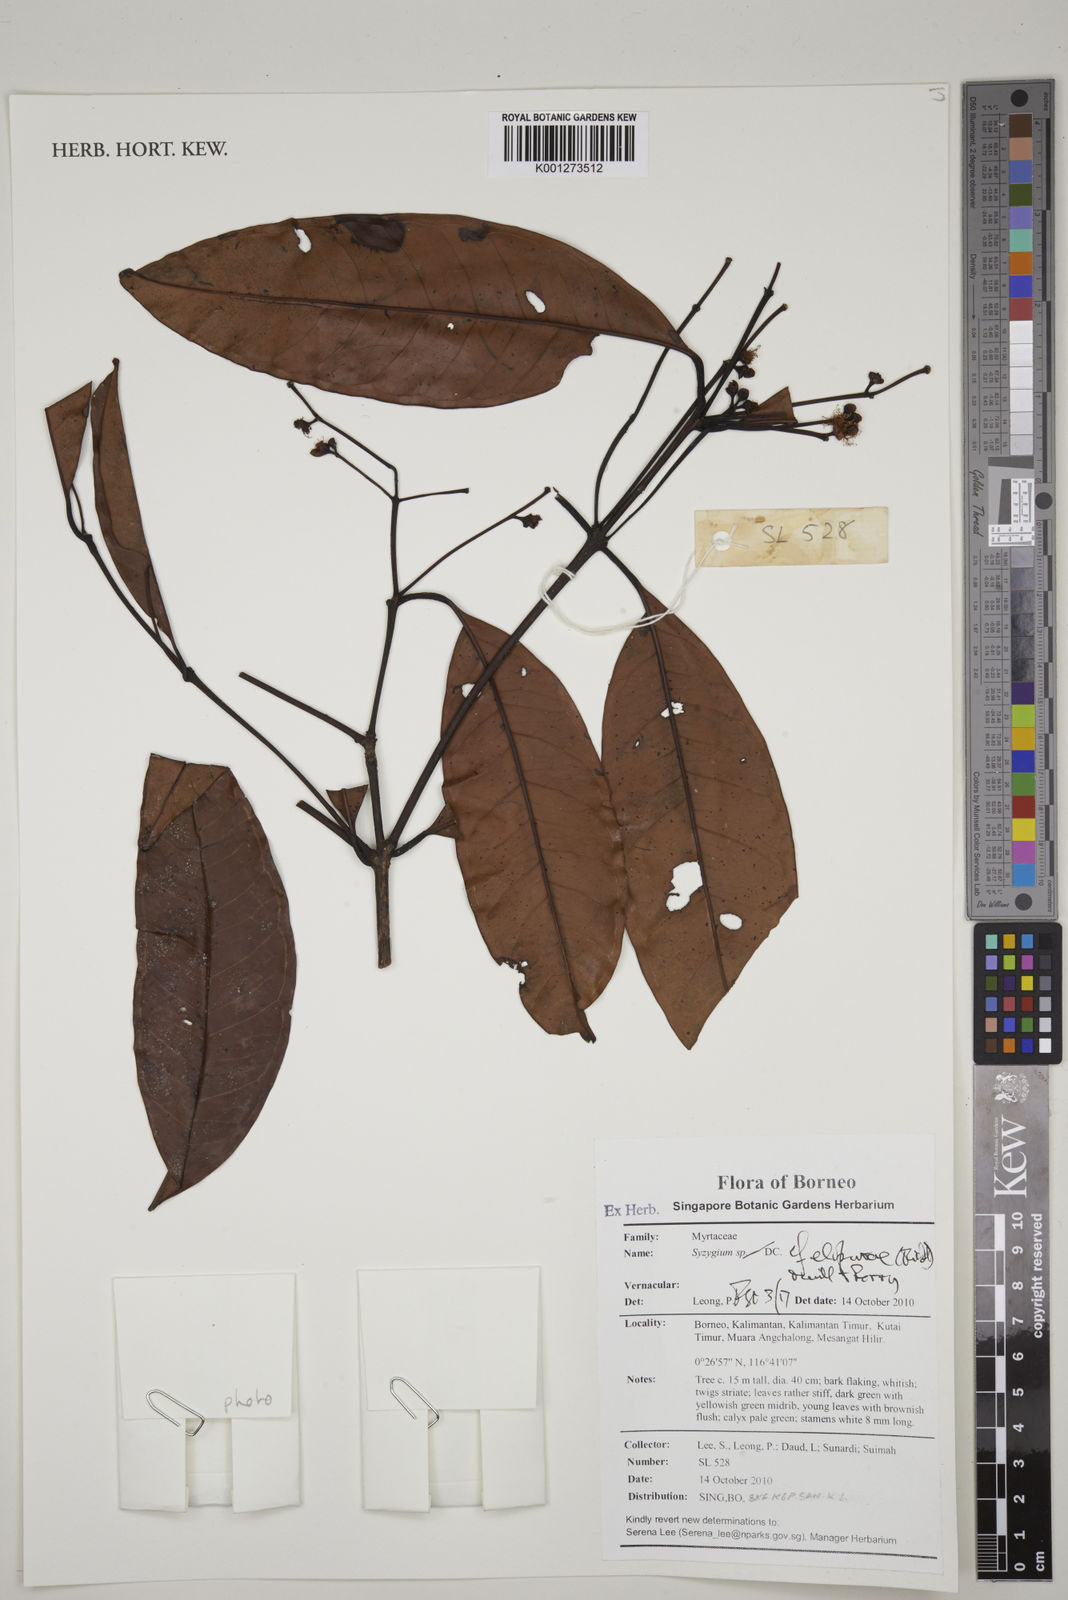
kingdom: Plantae
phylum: Tracheophyta
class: Magnoliopsida
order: Myrtales
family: Myrtaceae
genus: Syzygium
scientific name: Syzygium elopurae
